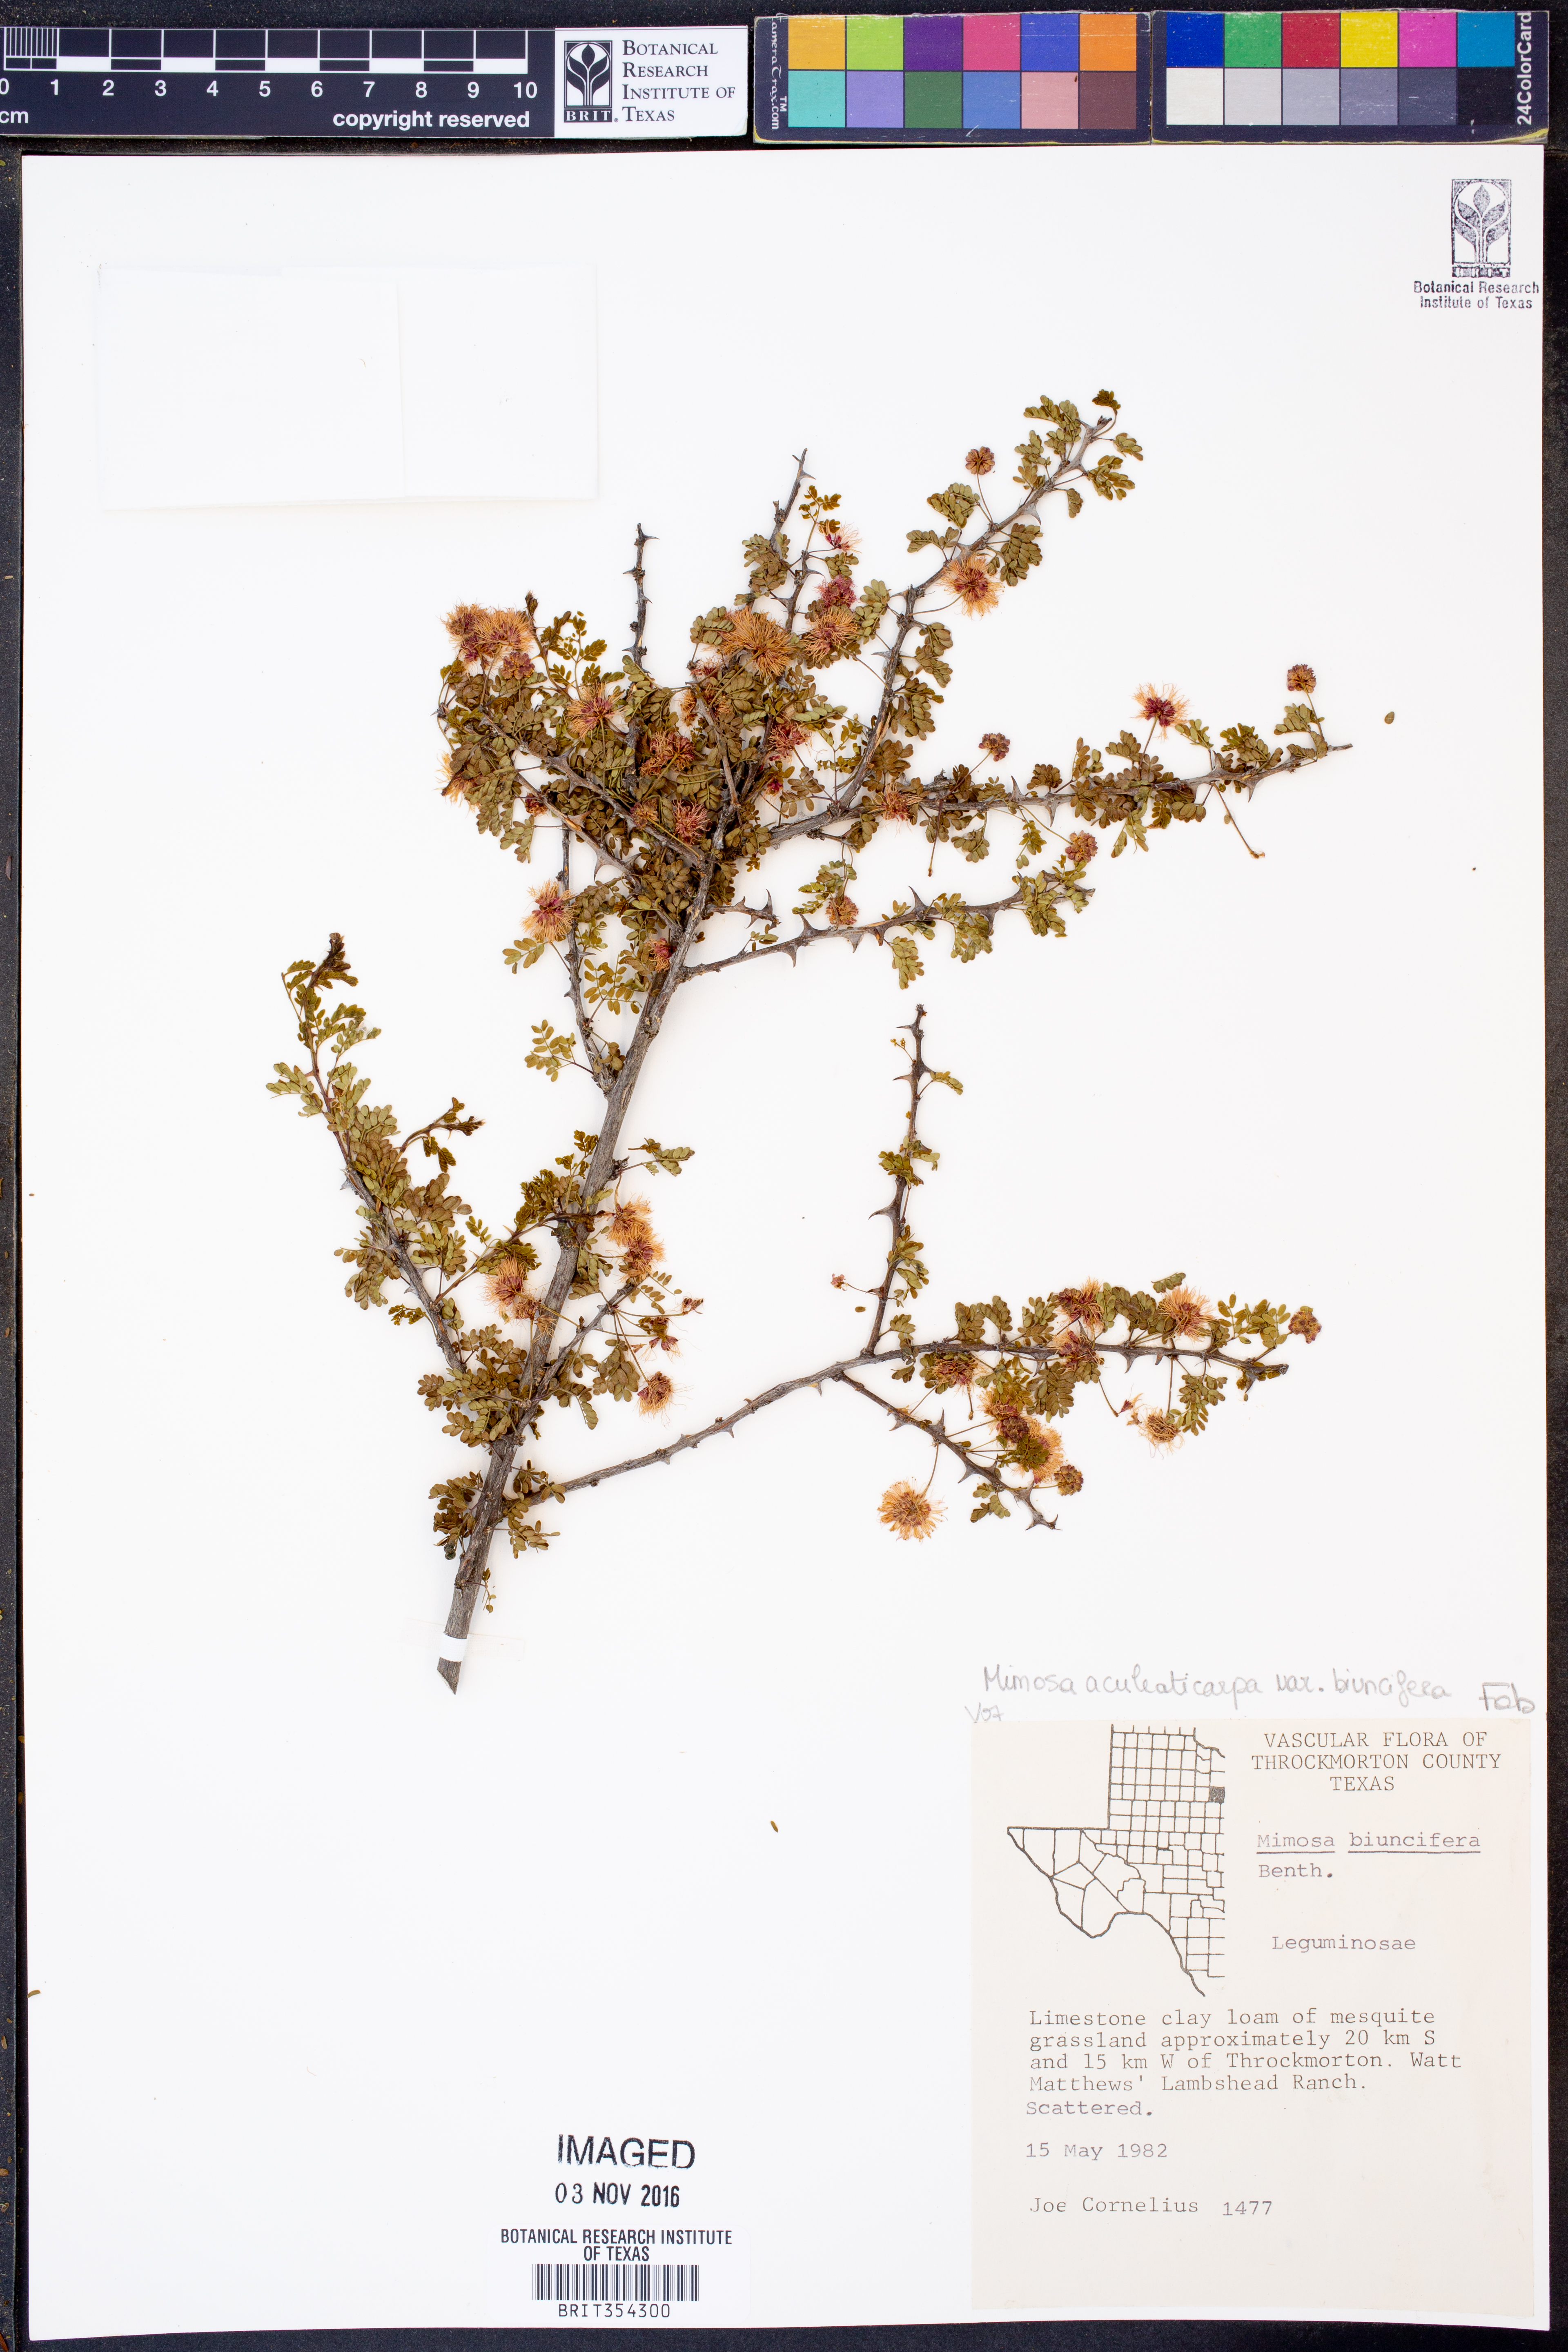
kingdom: Plantae
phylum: Tracheophyta
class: Magnoliopsida
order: Fabales
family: Fabaceae
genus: Mimosa
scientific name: Mimosa biuncifera
